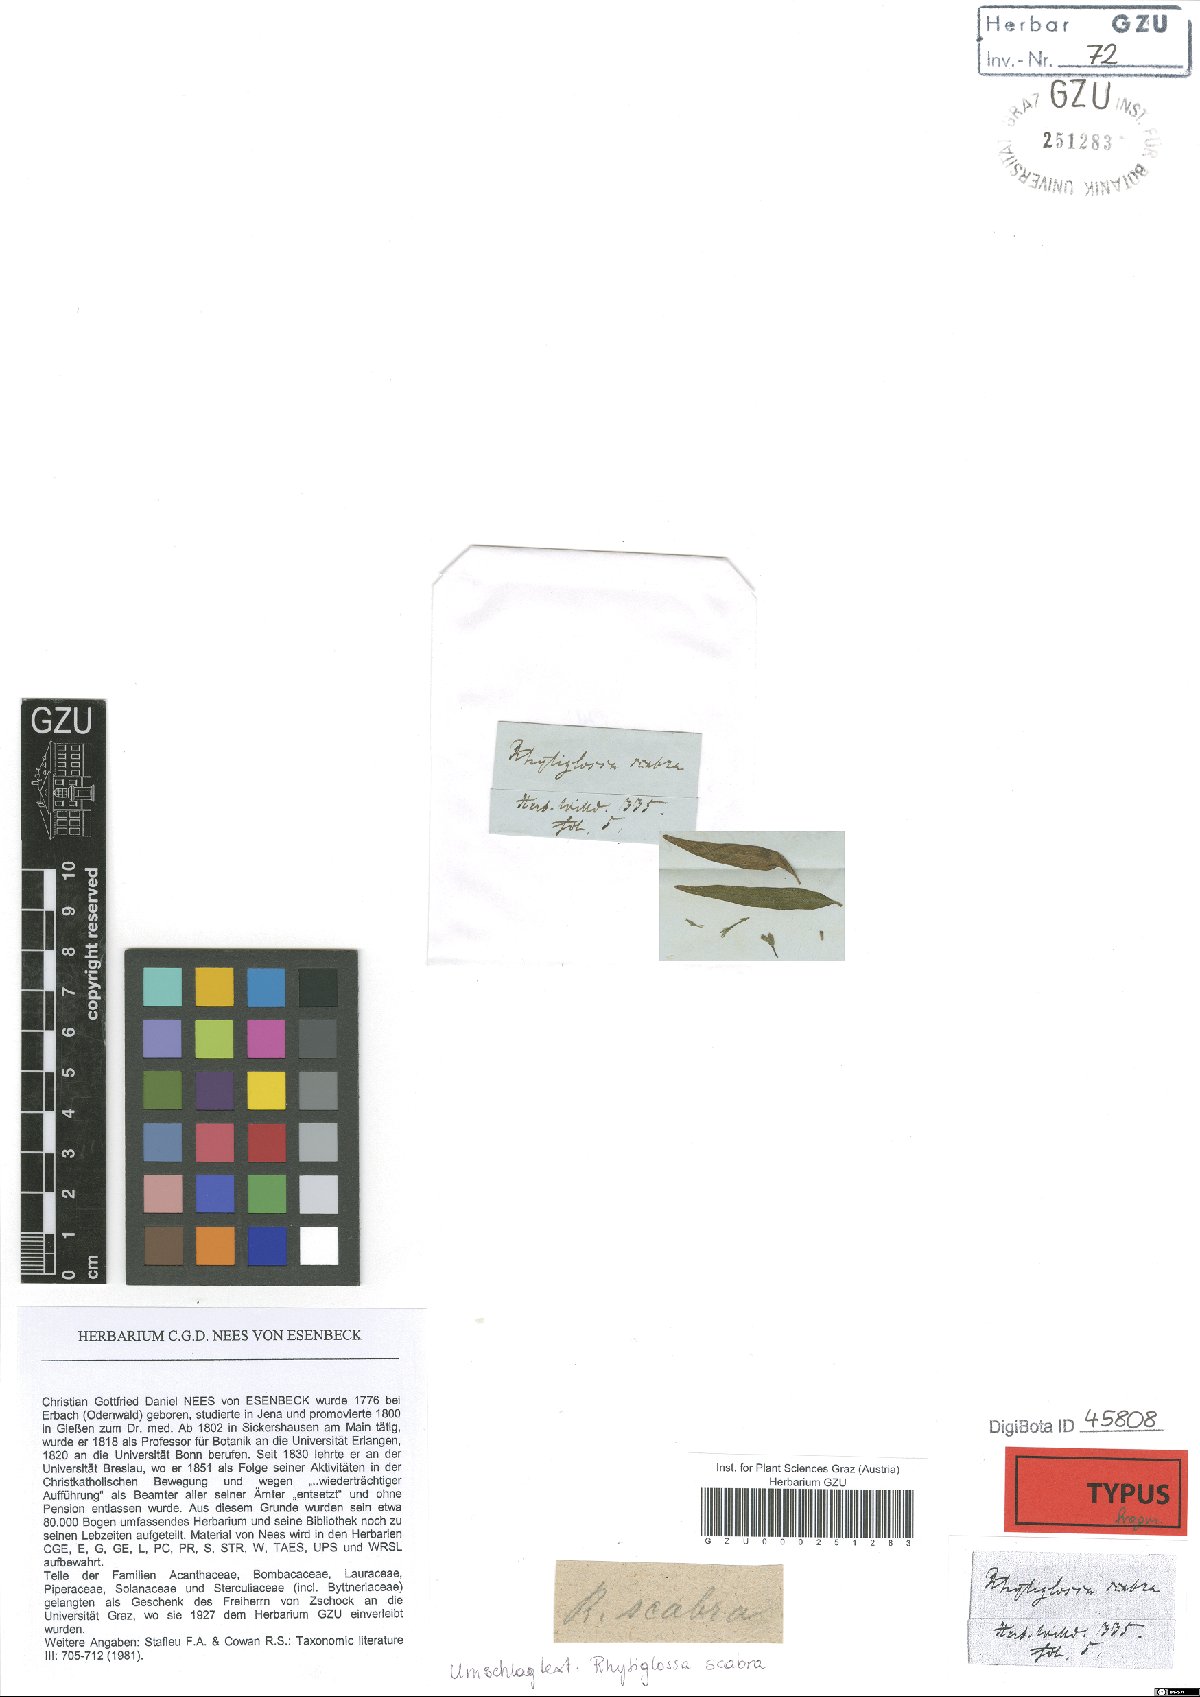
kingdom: Plantae
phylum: Tracheophyta
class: Magnoliopsida
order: Lamiales
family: Acanthaceae
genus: Dianthera
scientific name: Dianthera pectoralis
